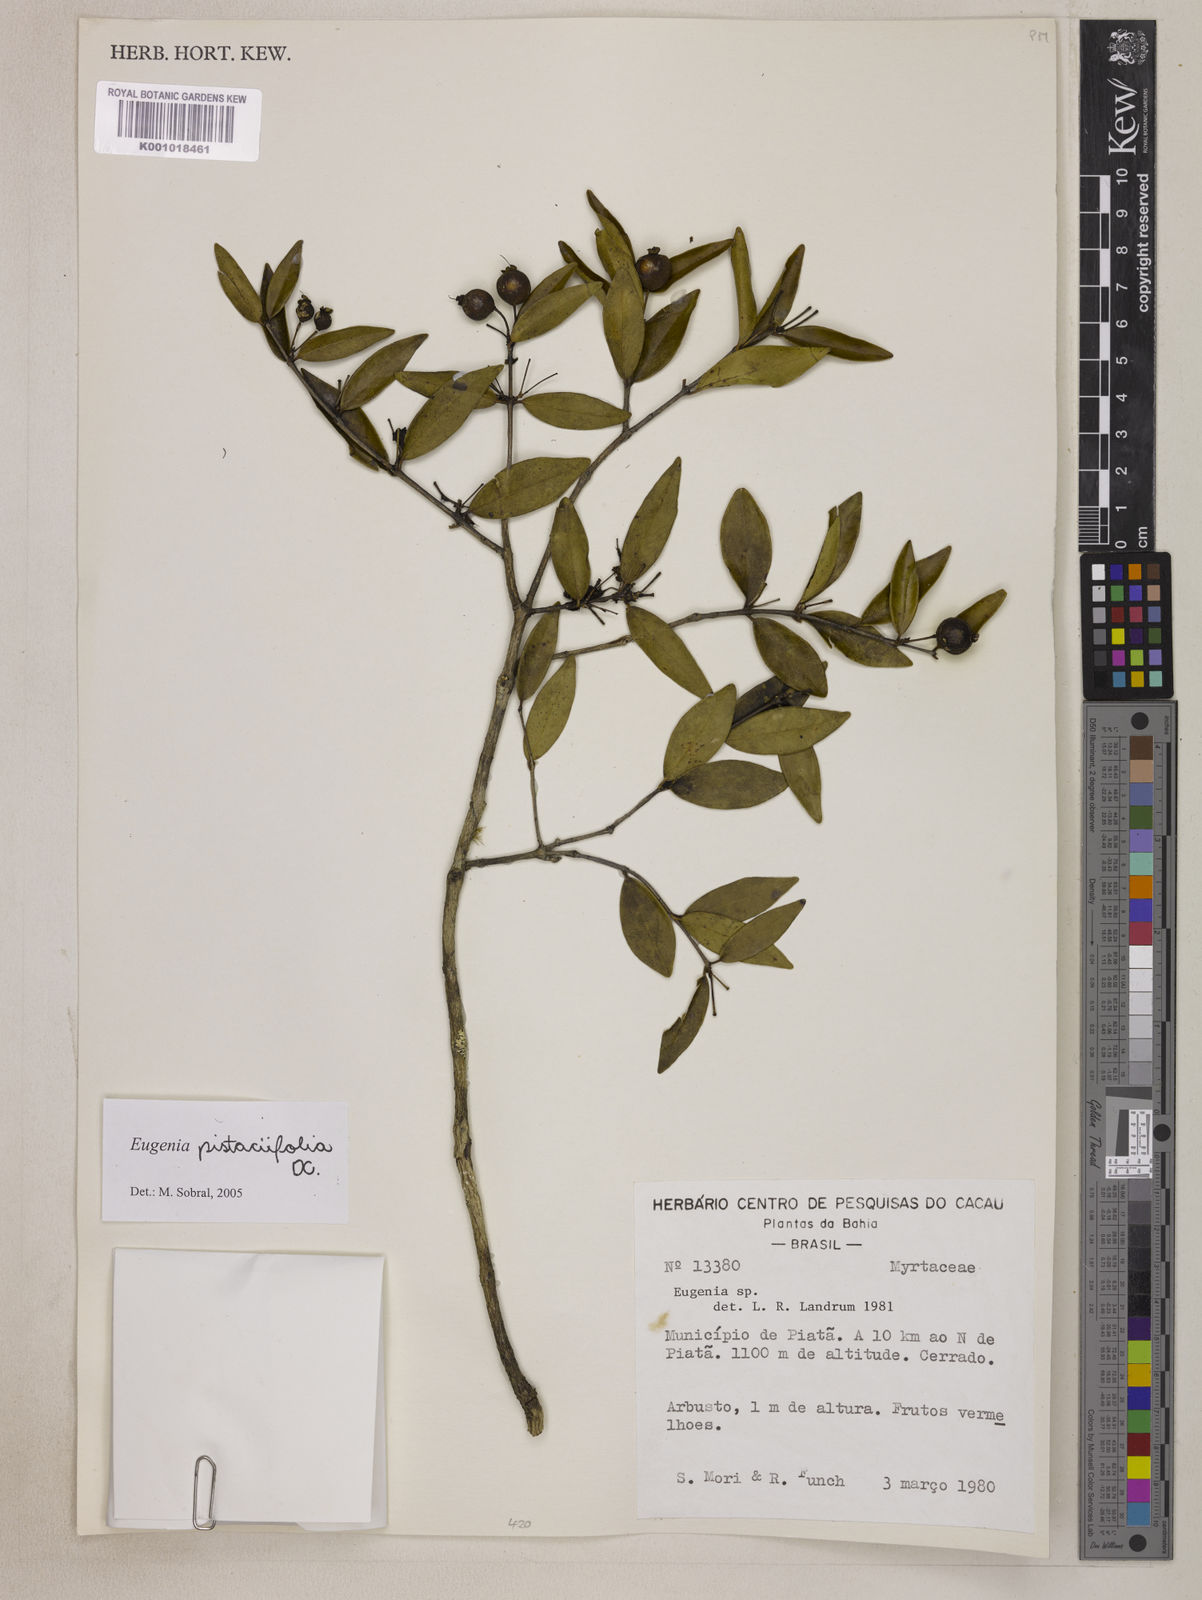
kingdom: Plantae
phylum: Tracheophyta
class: Magnoliopsida
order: Myrtales
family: Myrtaceae
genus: Eugenia
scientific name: Eugenia pistaciifolia
